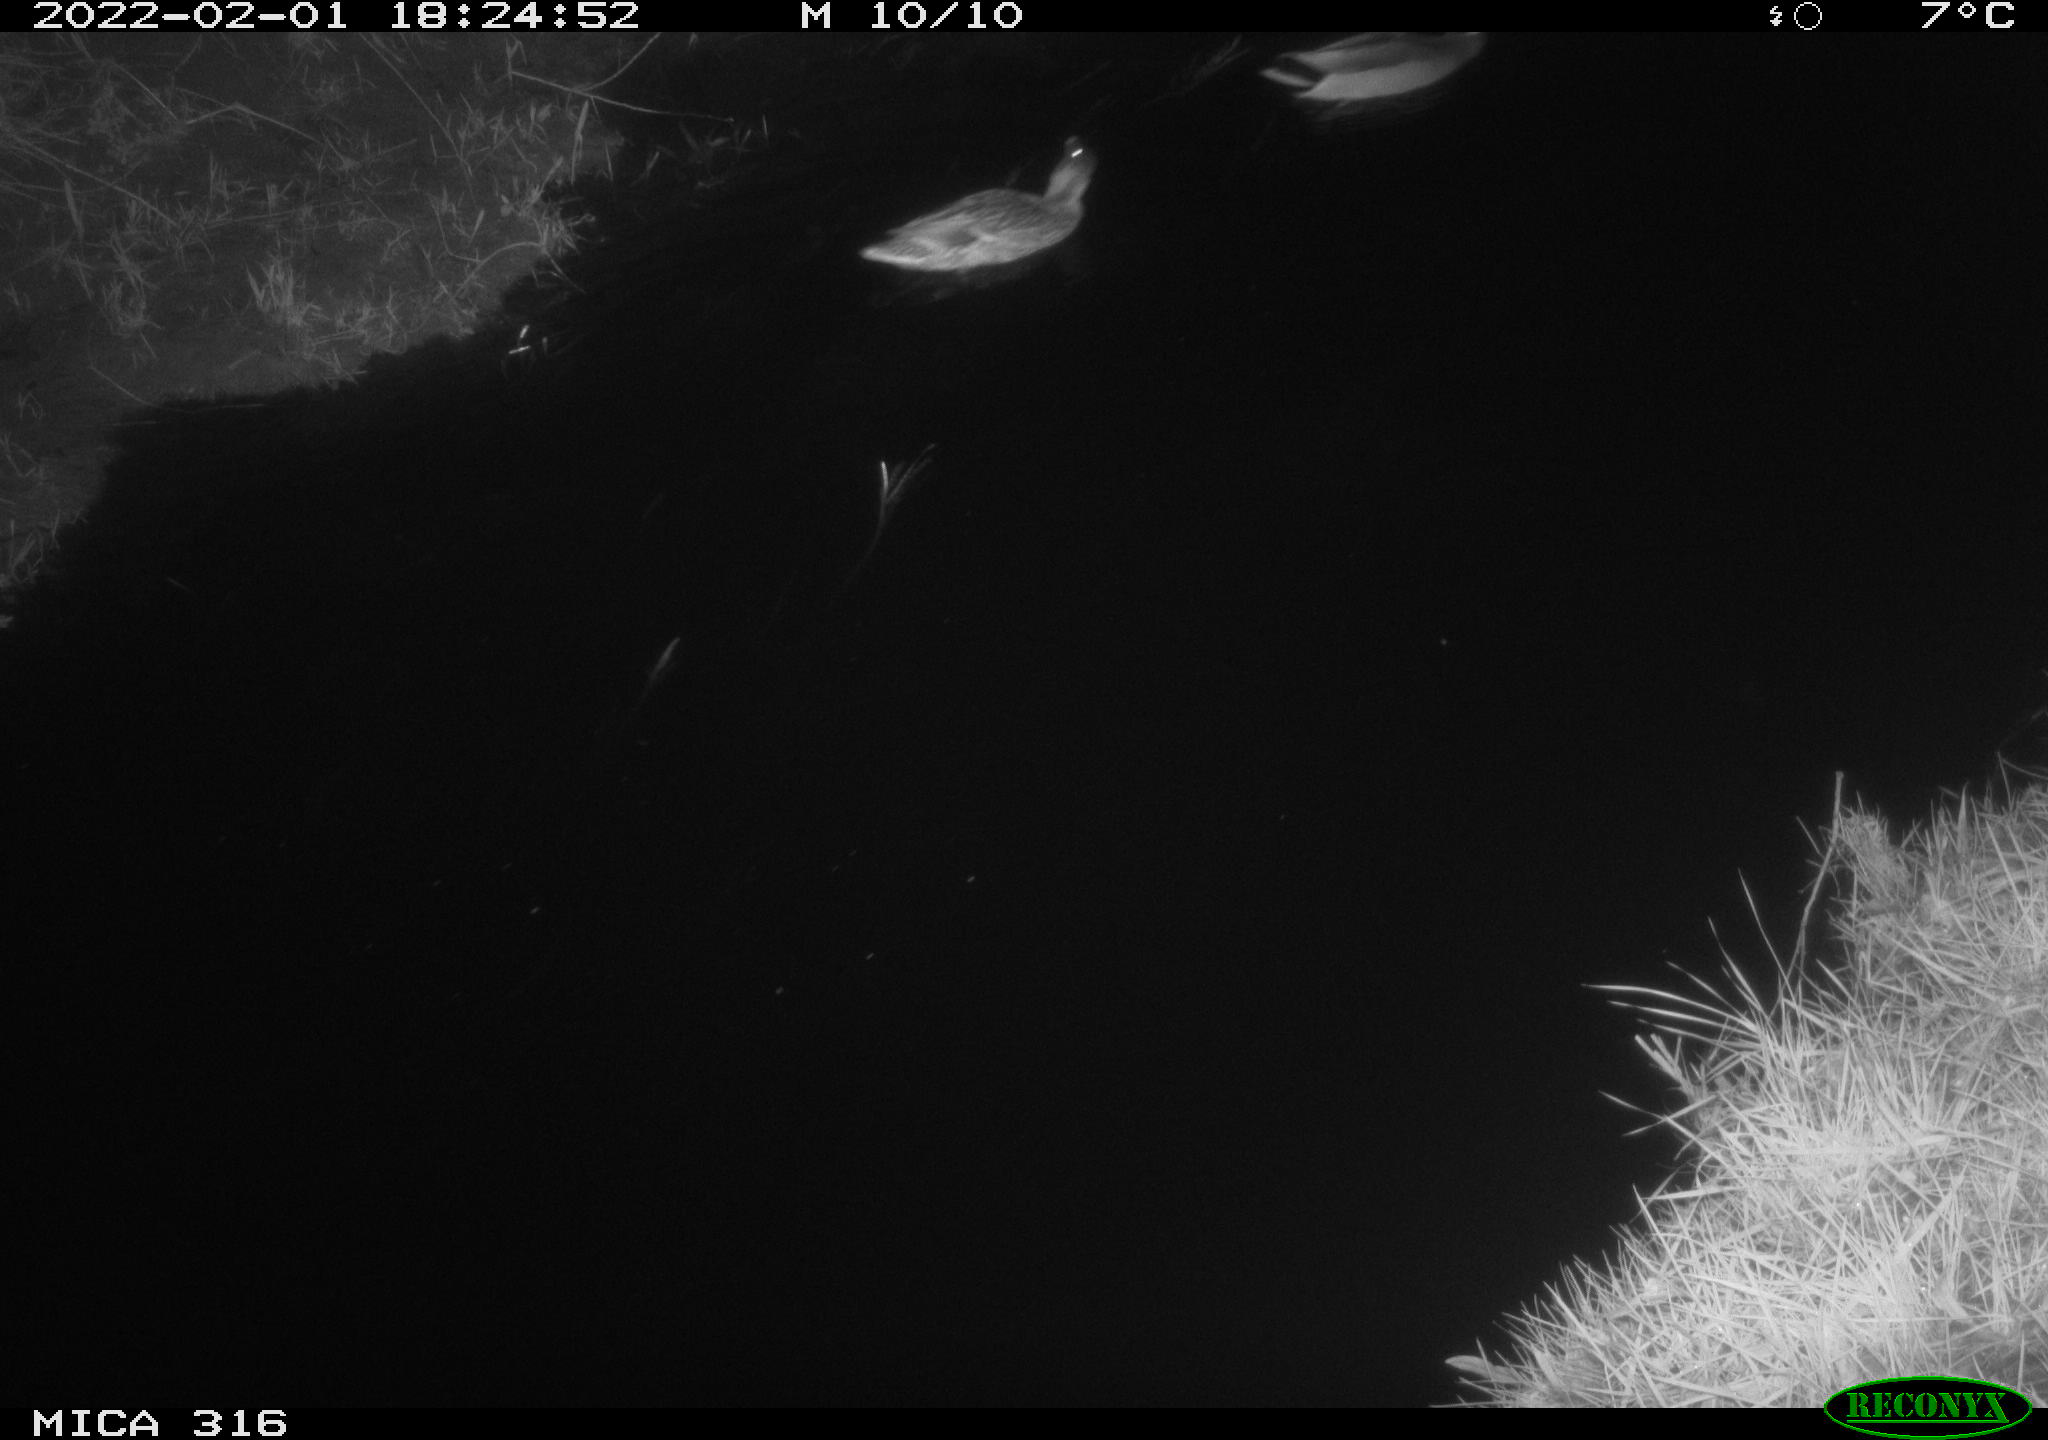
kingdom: Animalia
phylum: Chordata
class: Aves
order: Anseriformes
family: Anatidae
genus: Anas
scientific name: Anas platyrhynchos
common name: Mallard
